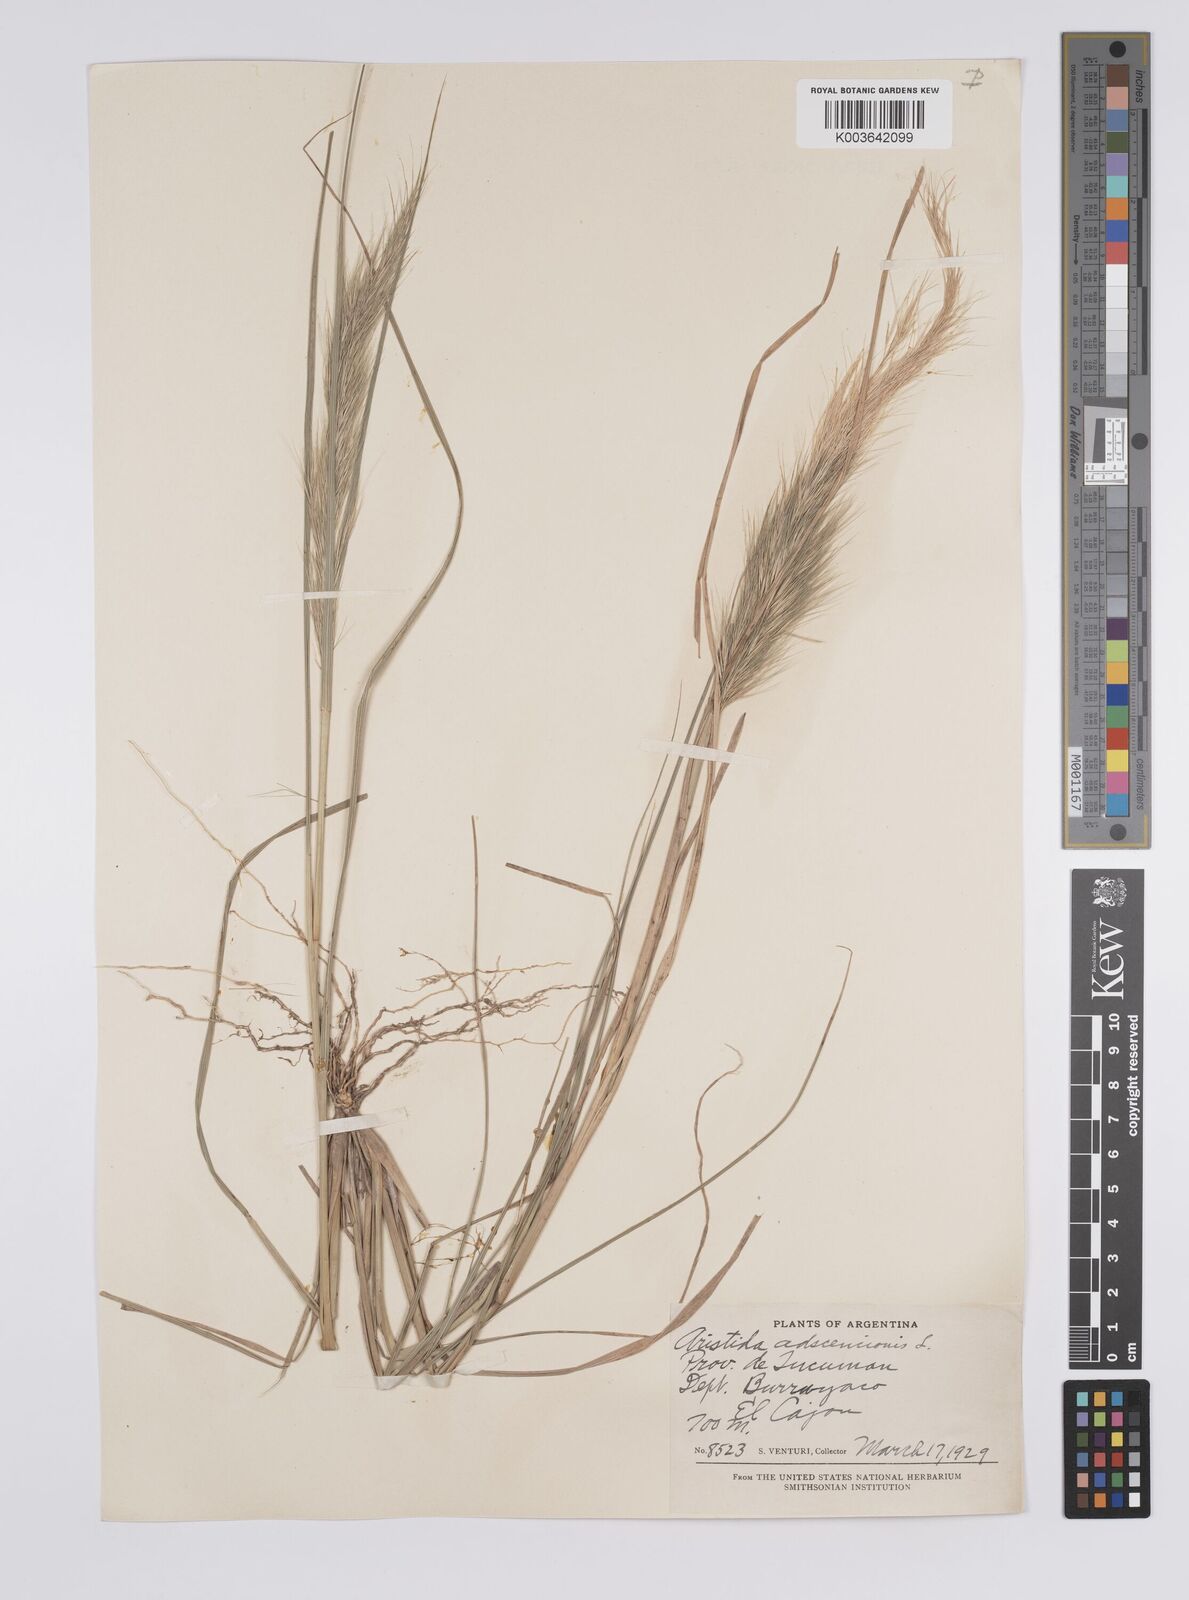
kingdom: Plantae
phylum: Tracheophyta
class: Liliopsida
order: Poales
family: Poaceae
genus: Aristida
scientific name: Aristida adscensionis
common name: Sixweeks threeawn
